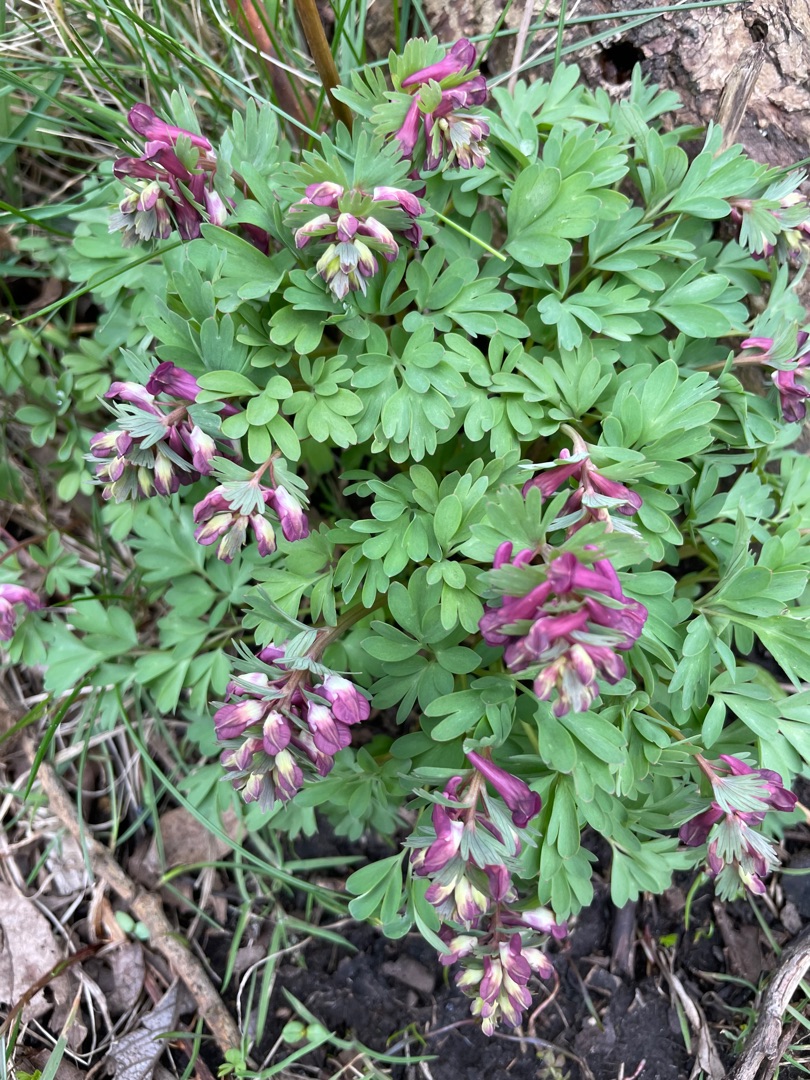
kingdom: Plantae
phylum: Tracheophyta
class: Magnoliopsida
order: Ranunculales
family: Papaveraceae
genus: Corydalis
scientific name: Corydalis solida
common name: Langstilket lærkespore
